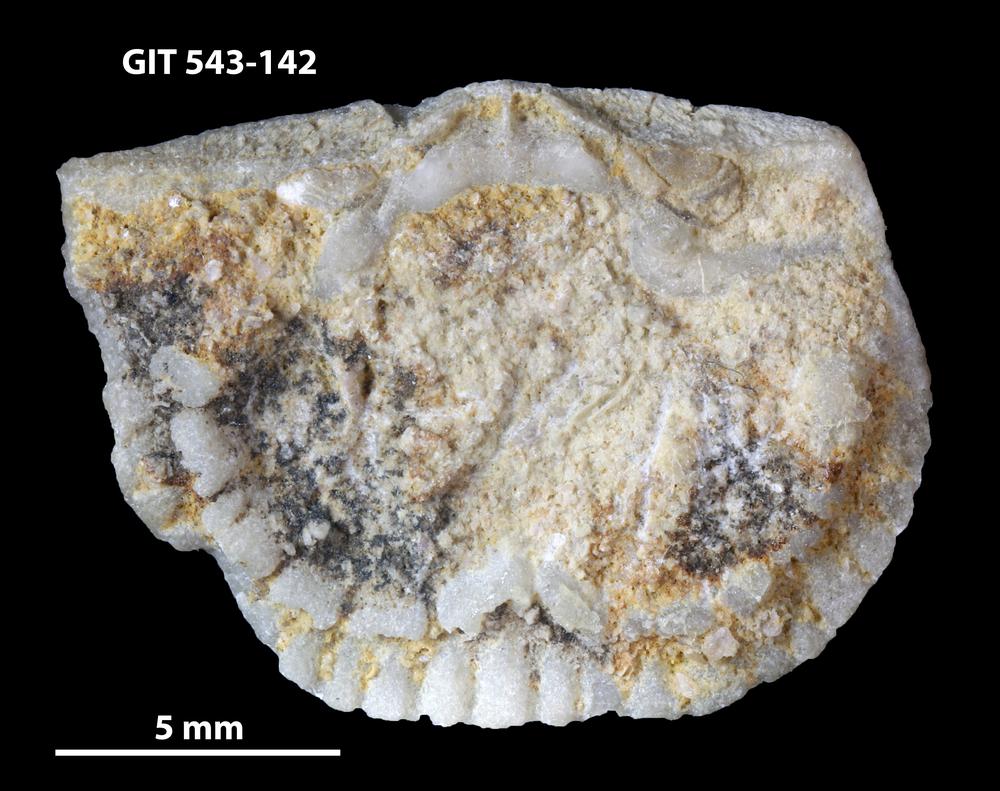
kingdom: Animalia
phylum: Brachiopoda
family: Gonambonitidae
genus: Estlandia
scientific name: Estlandia Orthisina marginata
